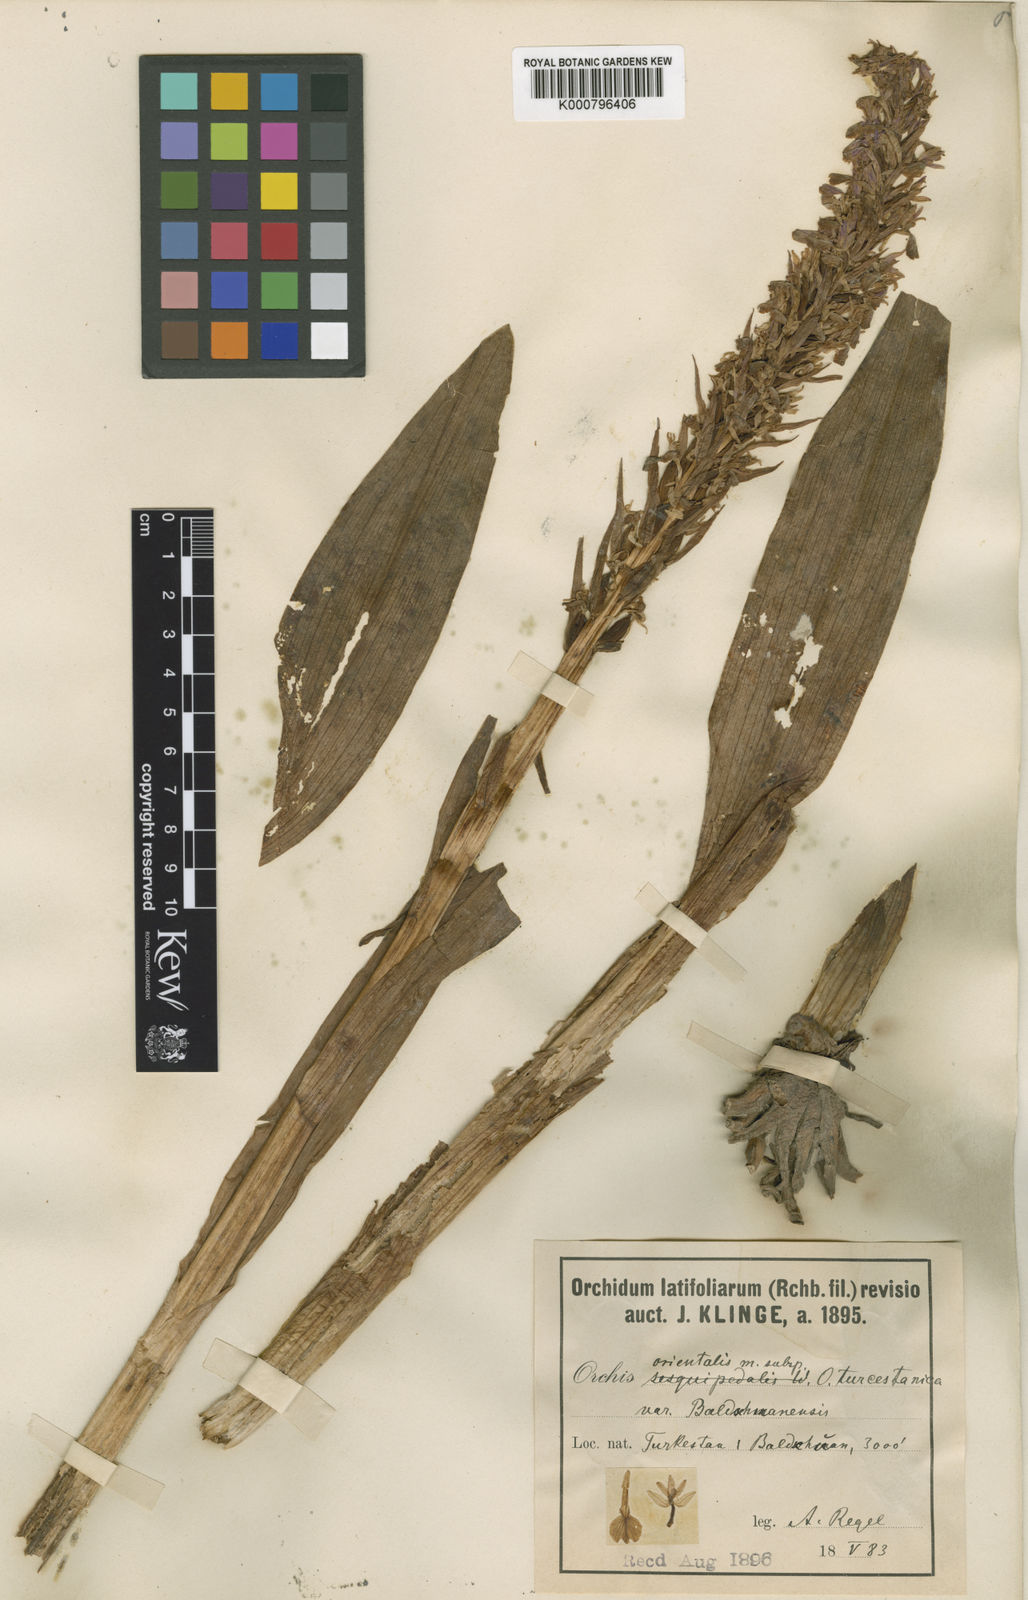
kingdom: Plantae
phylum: Tracheophyta
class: Liliopsida
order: Asparagales
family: Orchidaceae
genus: Dactylorhiza
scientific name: Dactylorhiza incarnata
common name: Early marsh-orchid
